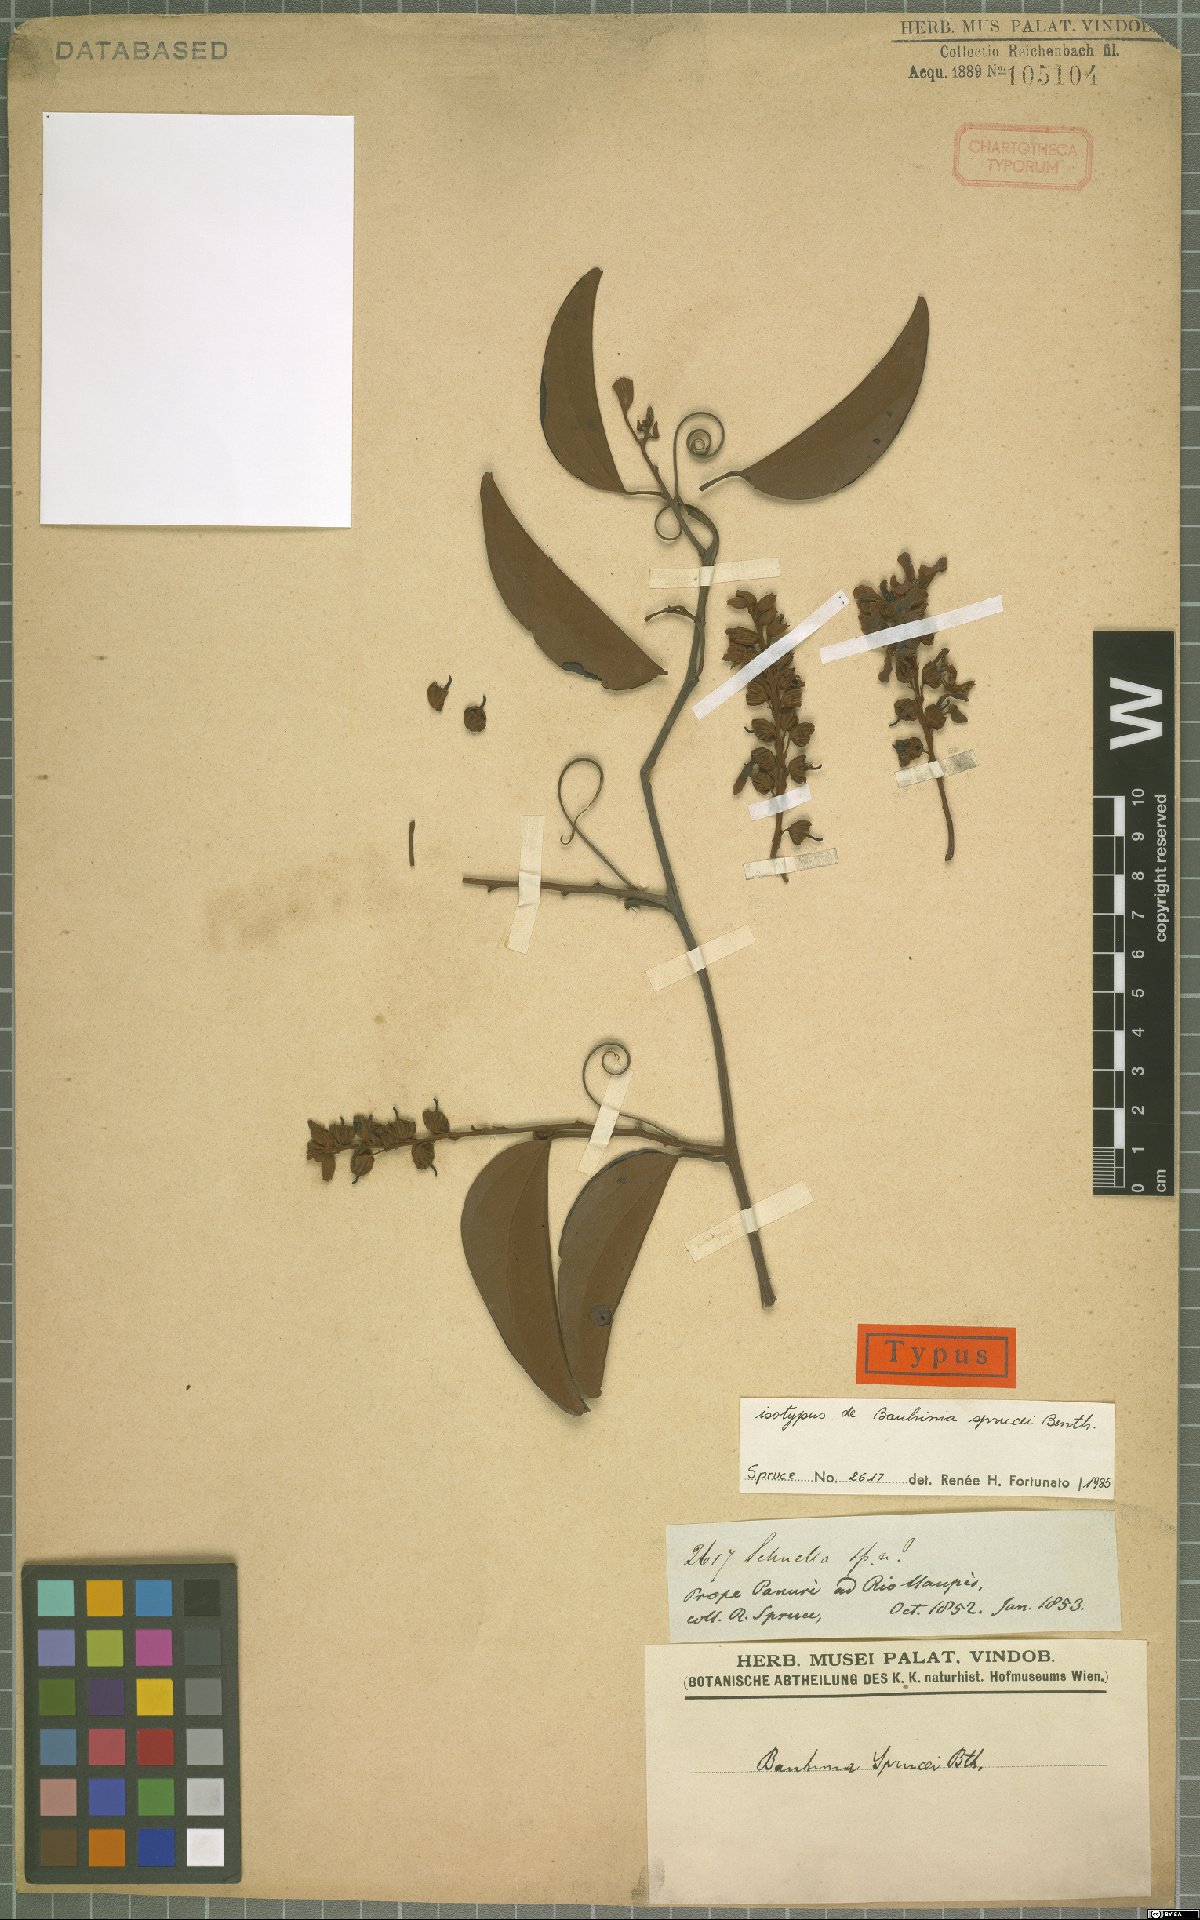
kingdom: Plantae
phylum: Tracheophyta
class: Magnoliopsida
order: Fabales
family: Fabaceae
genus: Schnella
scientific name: Schnella sprucei
